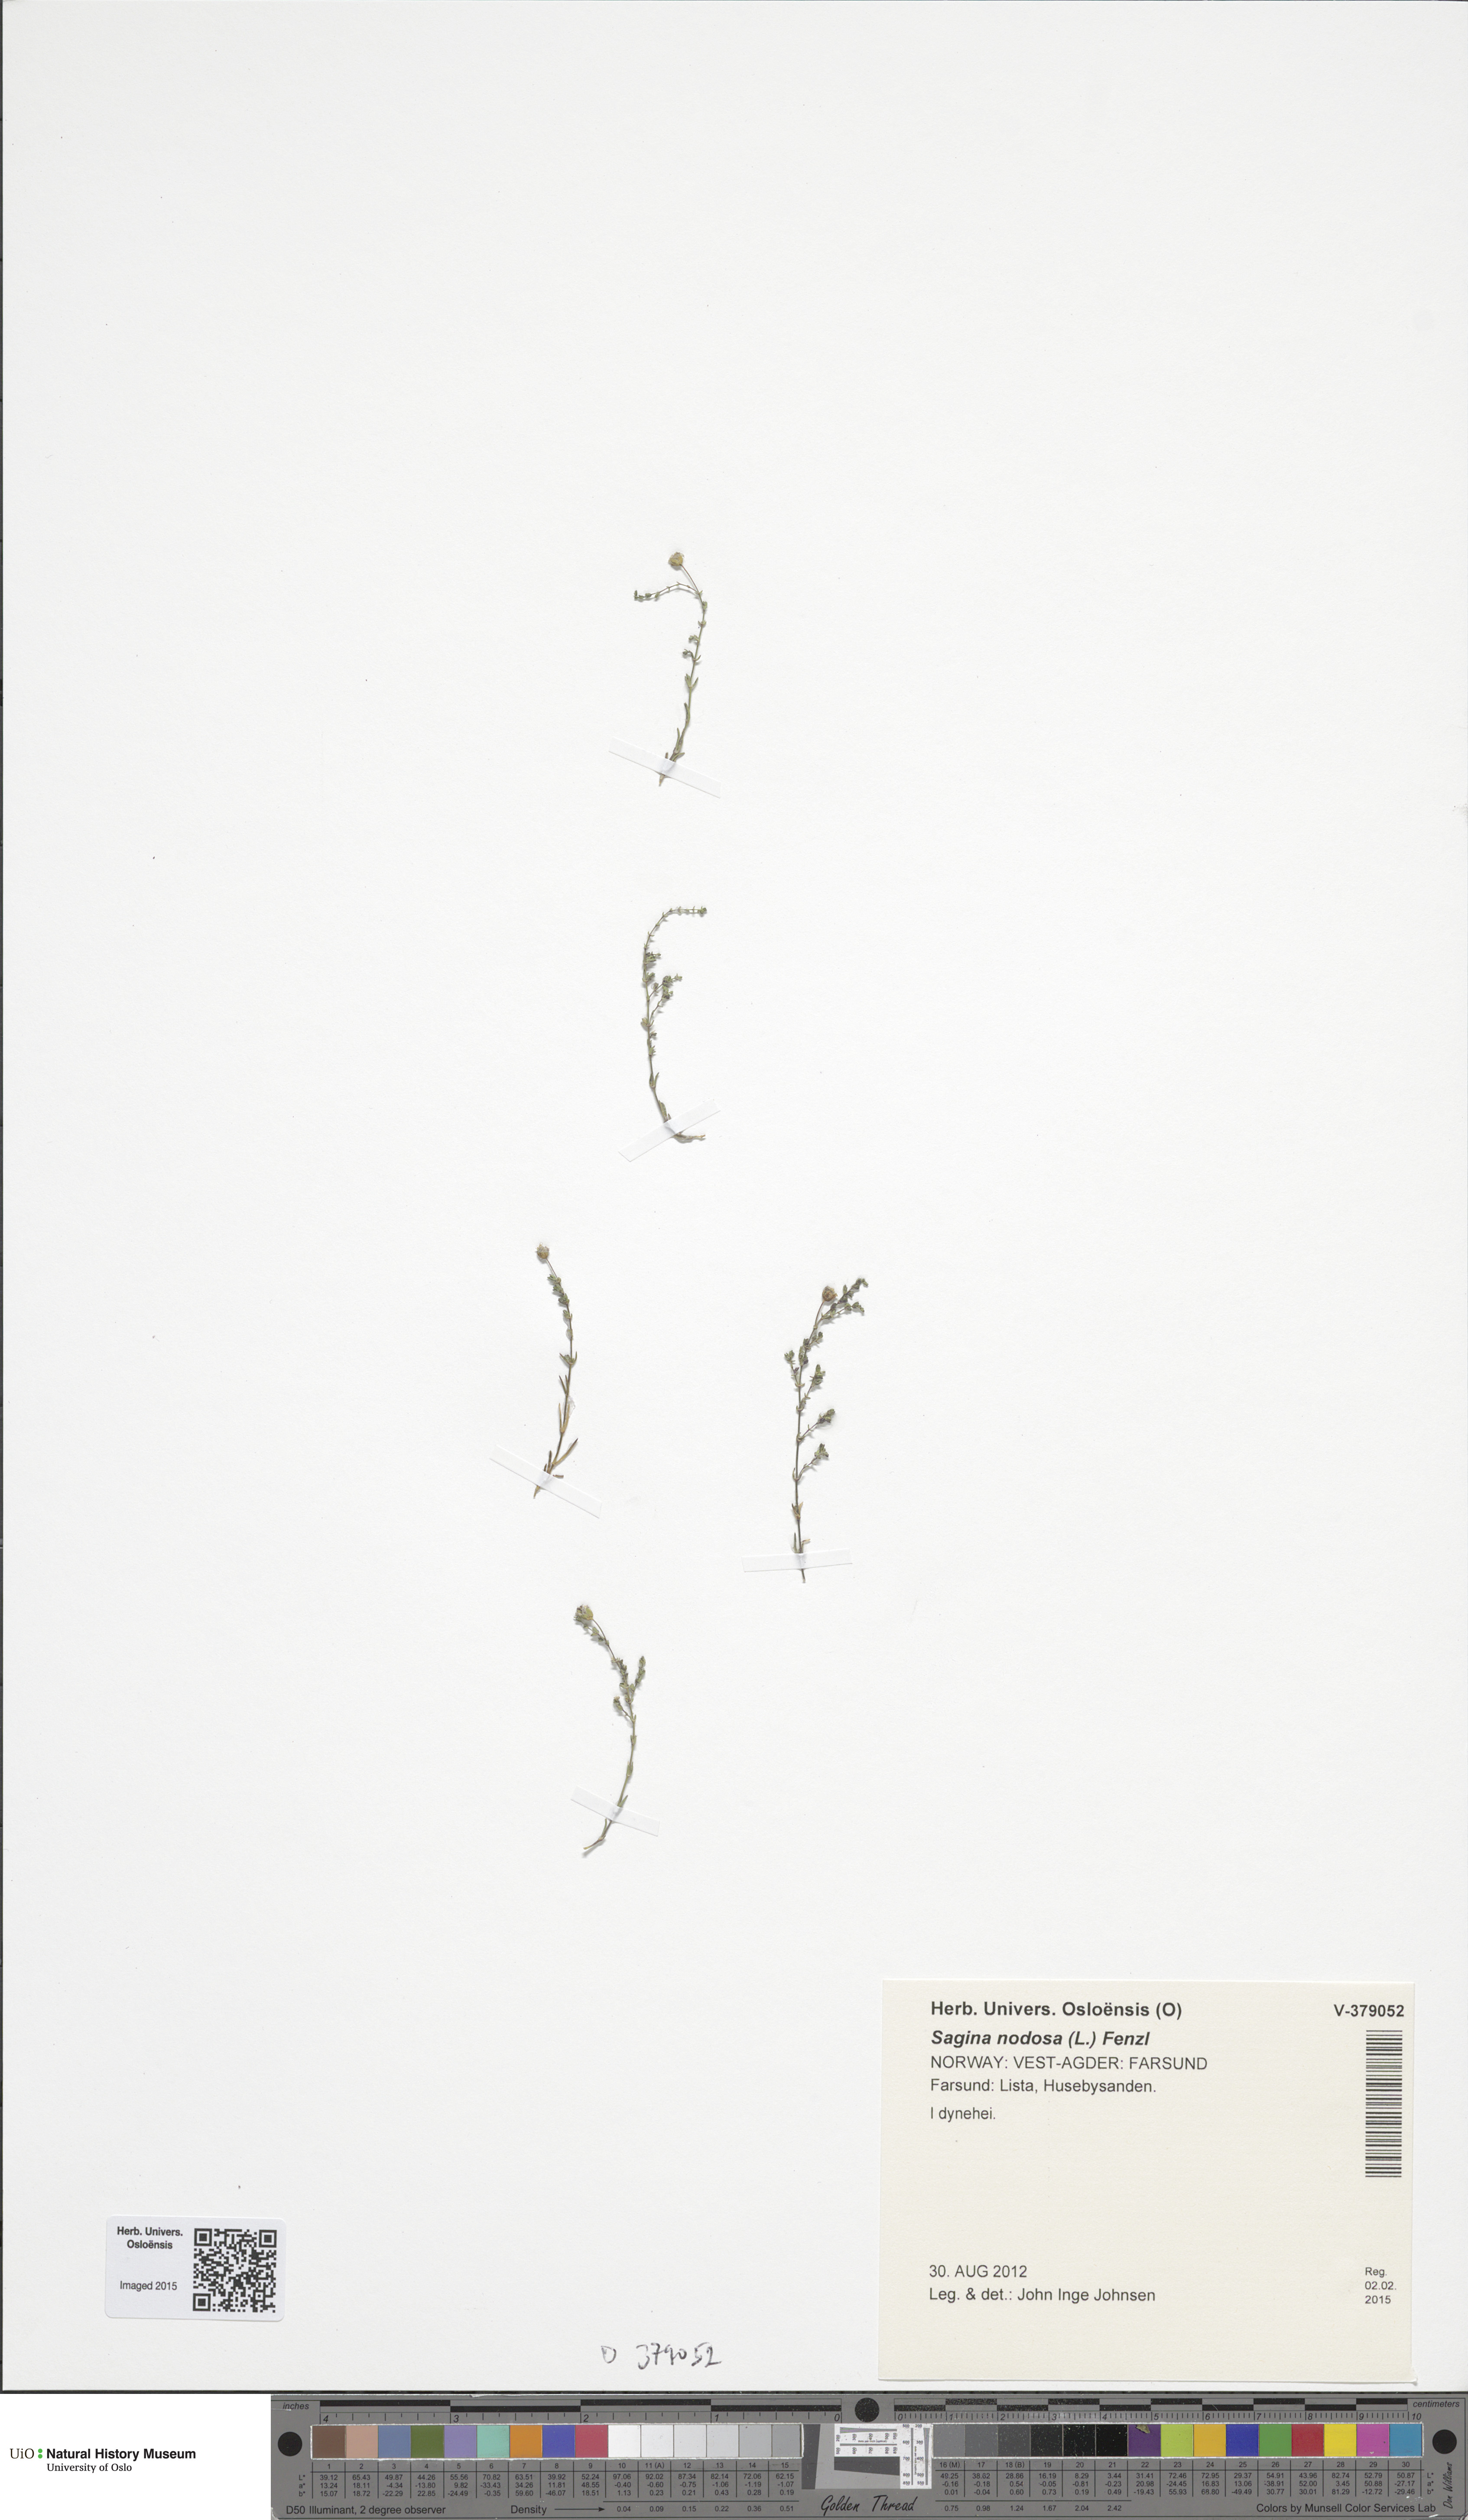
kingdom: Plantae
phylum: Tracheophyta
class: Magnoliopsida
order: Caryophyllales
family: Caryophyllaceae
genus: Sagina
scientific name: Sagina nodosa
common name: Knotted pearlwort
